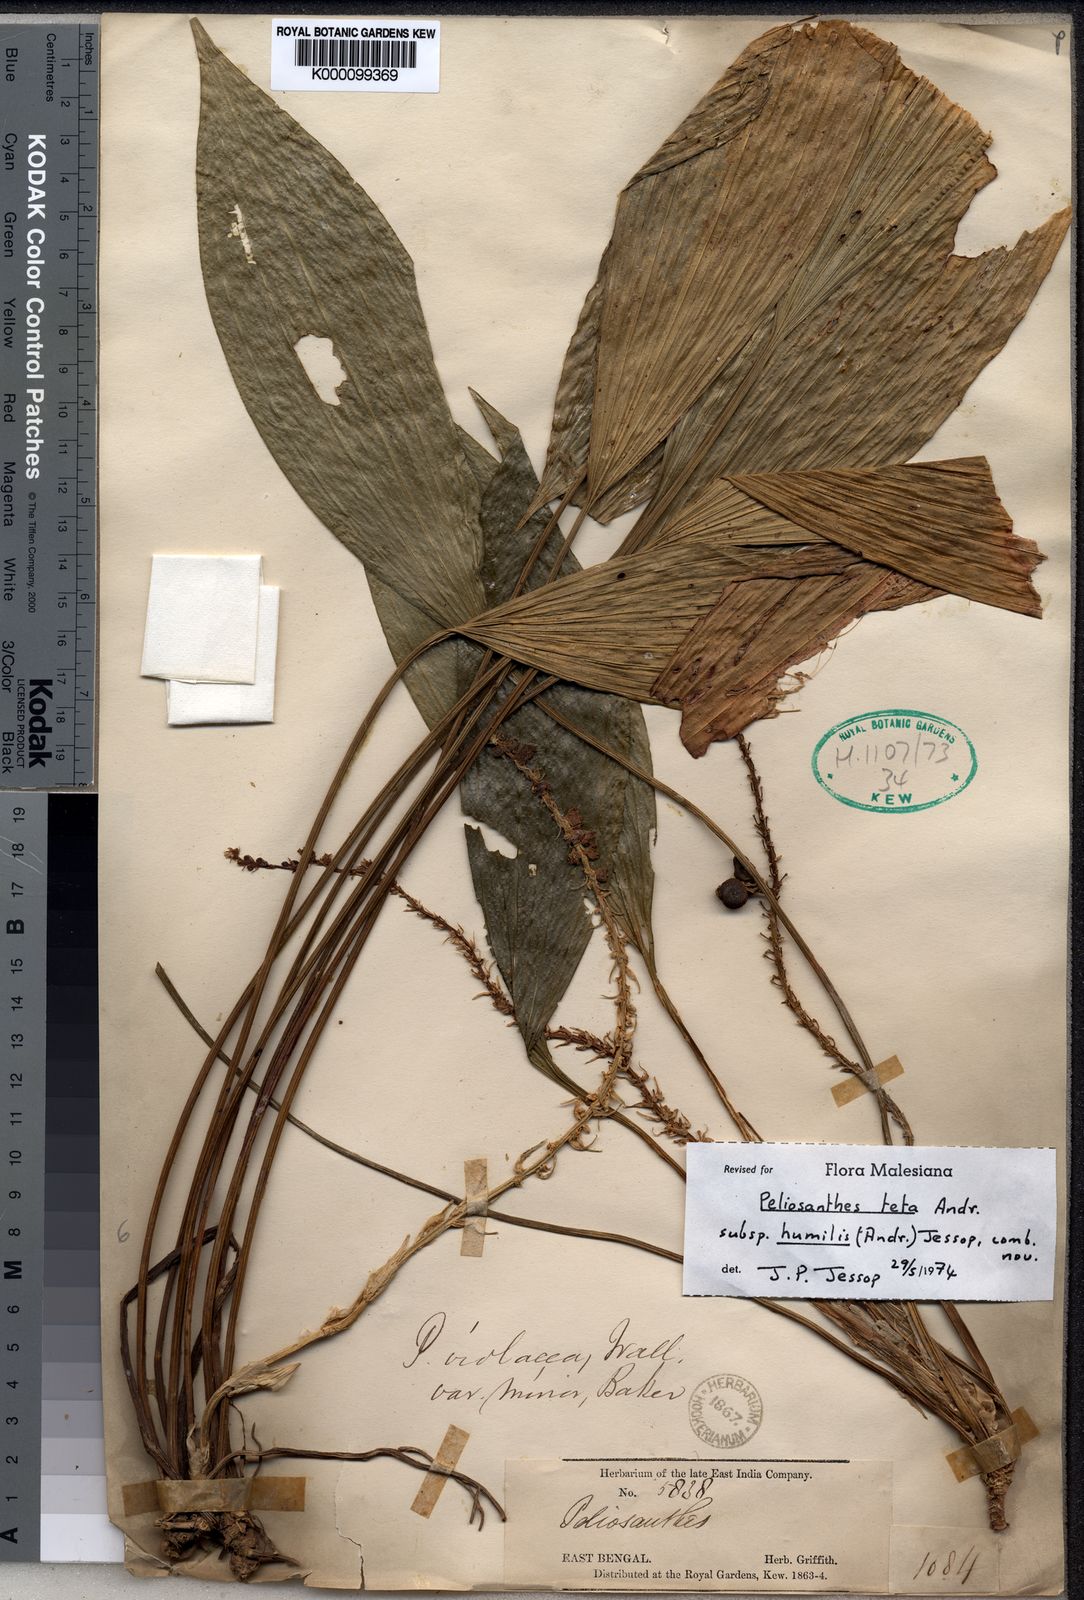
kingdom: Plantae
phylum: Tracheophyta
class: Liliopsida
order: Asparagales
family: Asparagaceae
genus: Peliosanthes
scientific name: Peliosanthes griffithii
